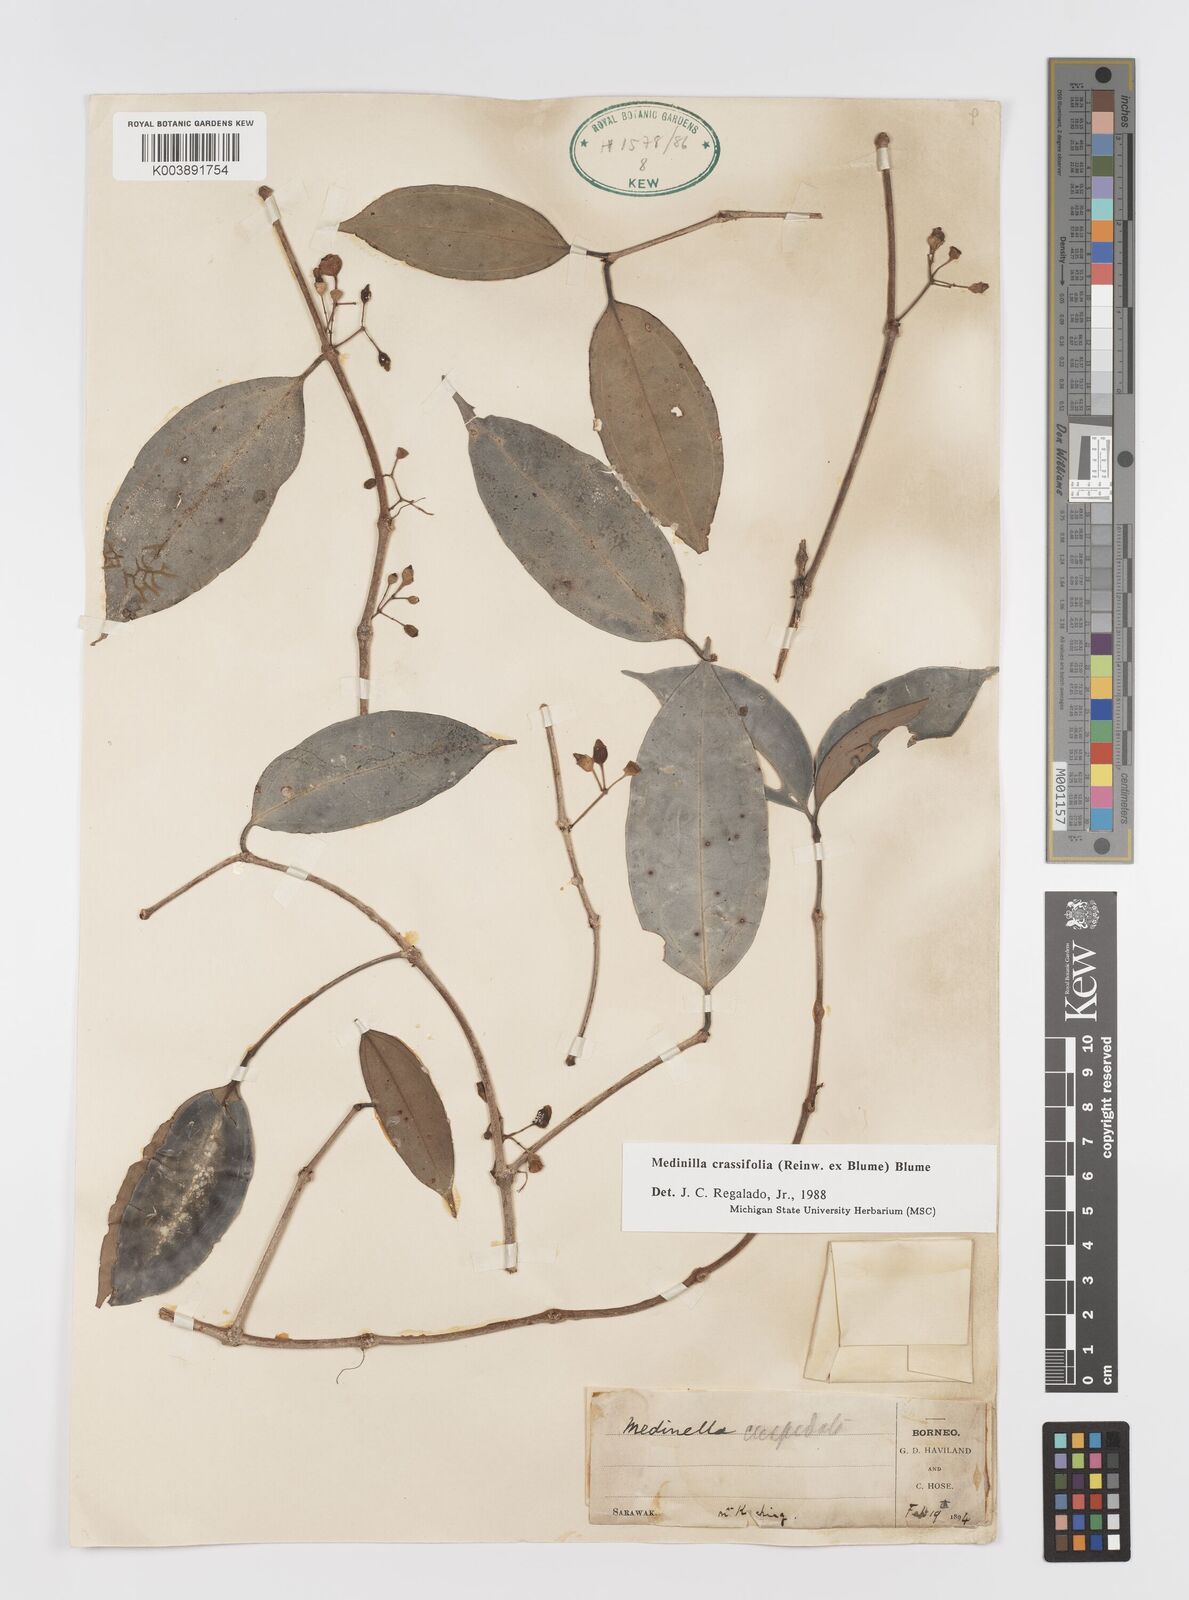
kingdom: Plantae
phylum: Tracheophyta
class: Magnoliopsida
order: Myrtales
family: Melastomataceae
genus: Medinilla
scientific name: Medinilla crassifolia
